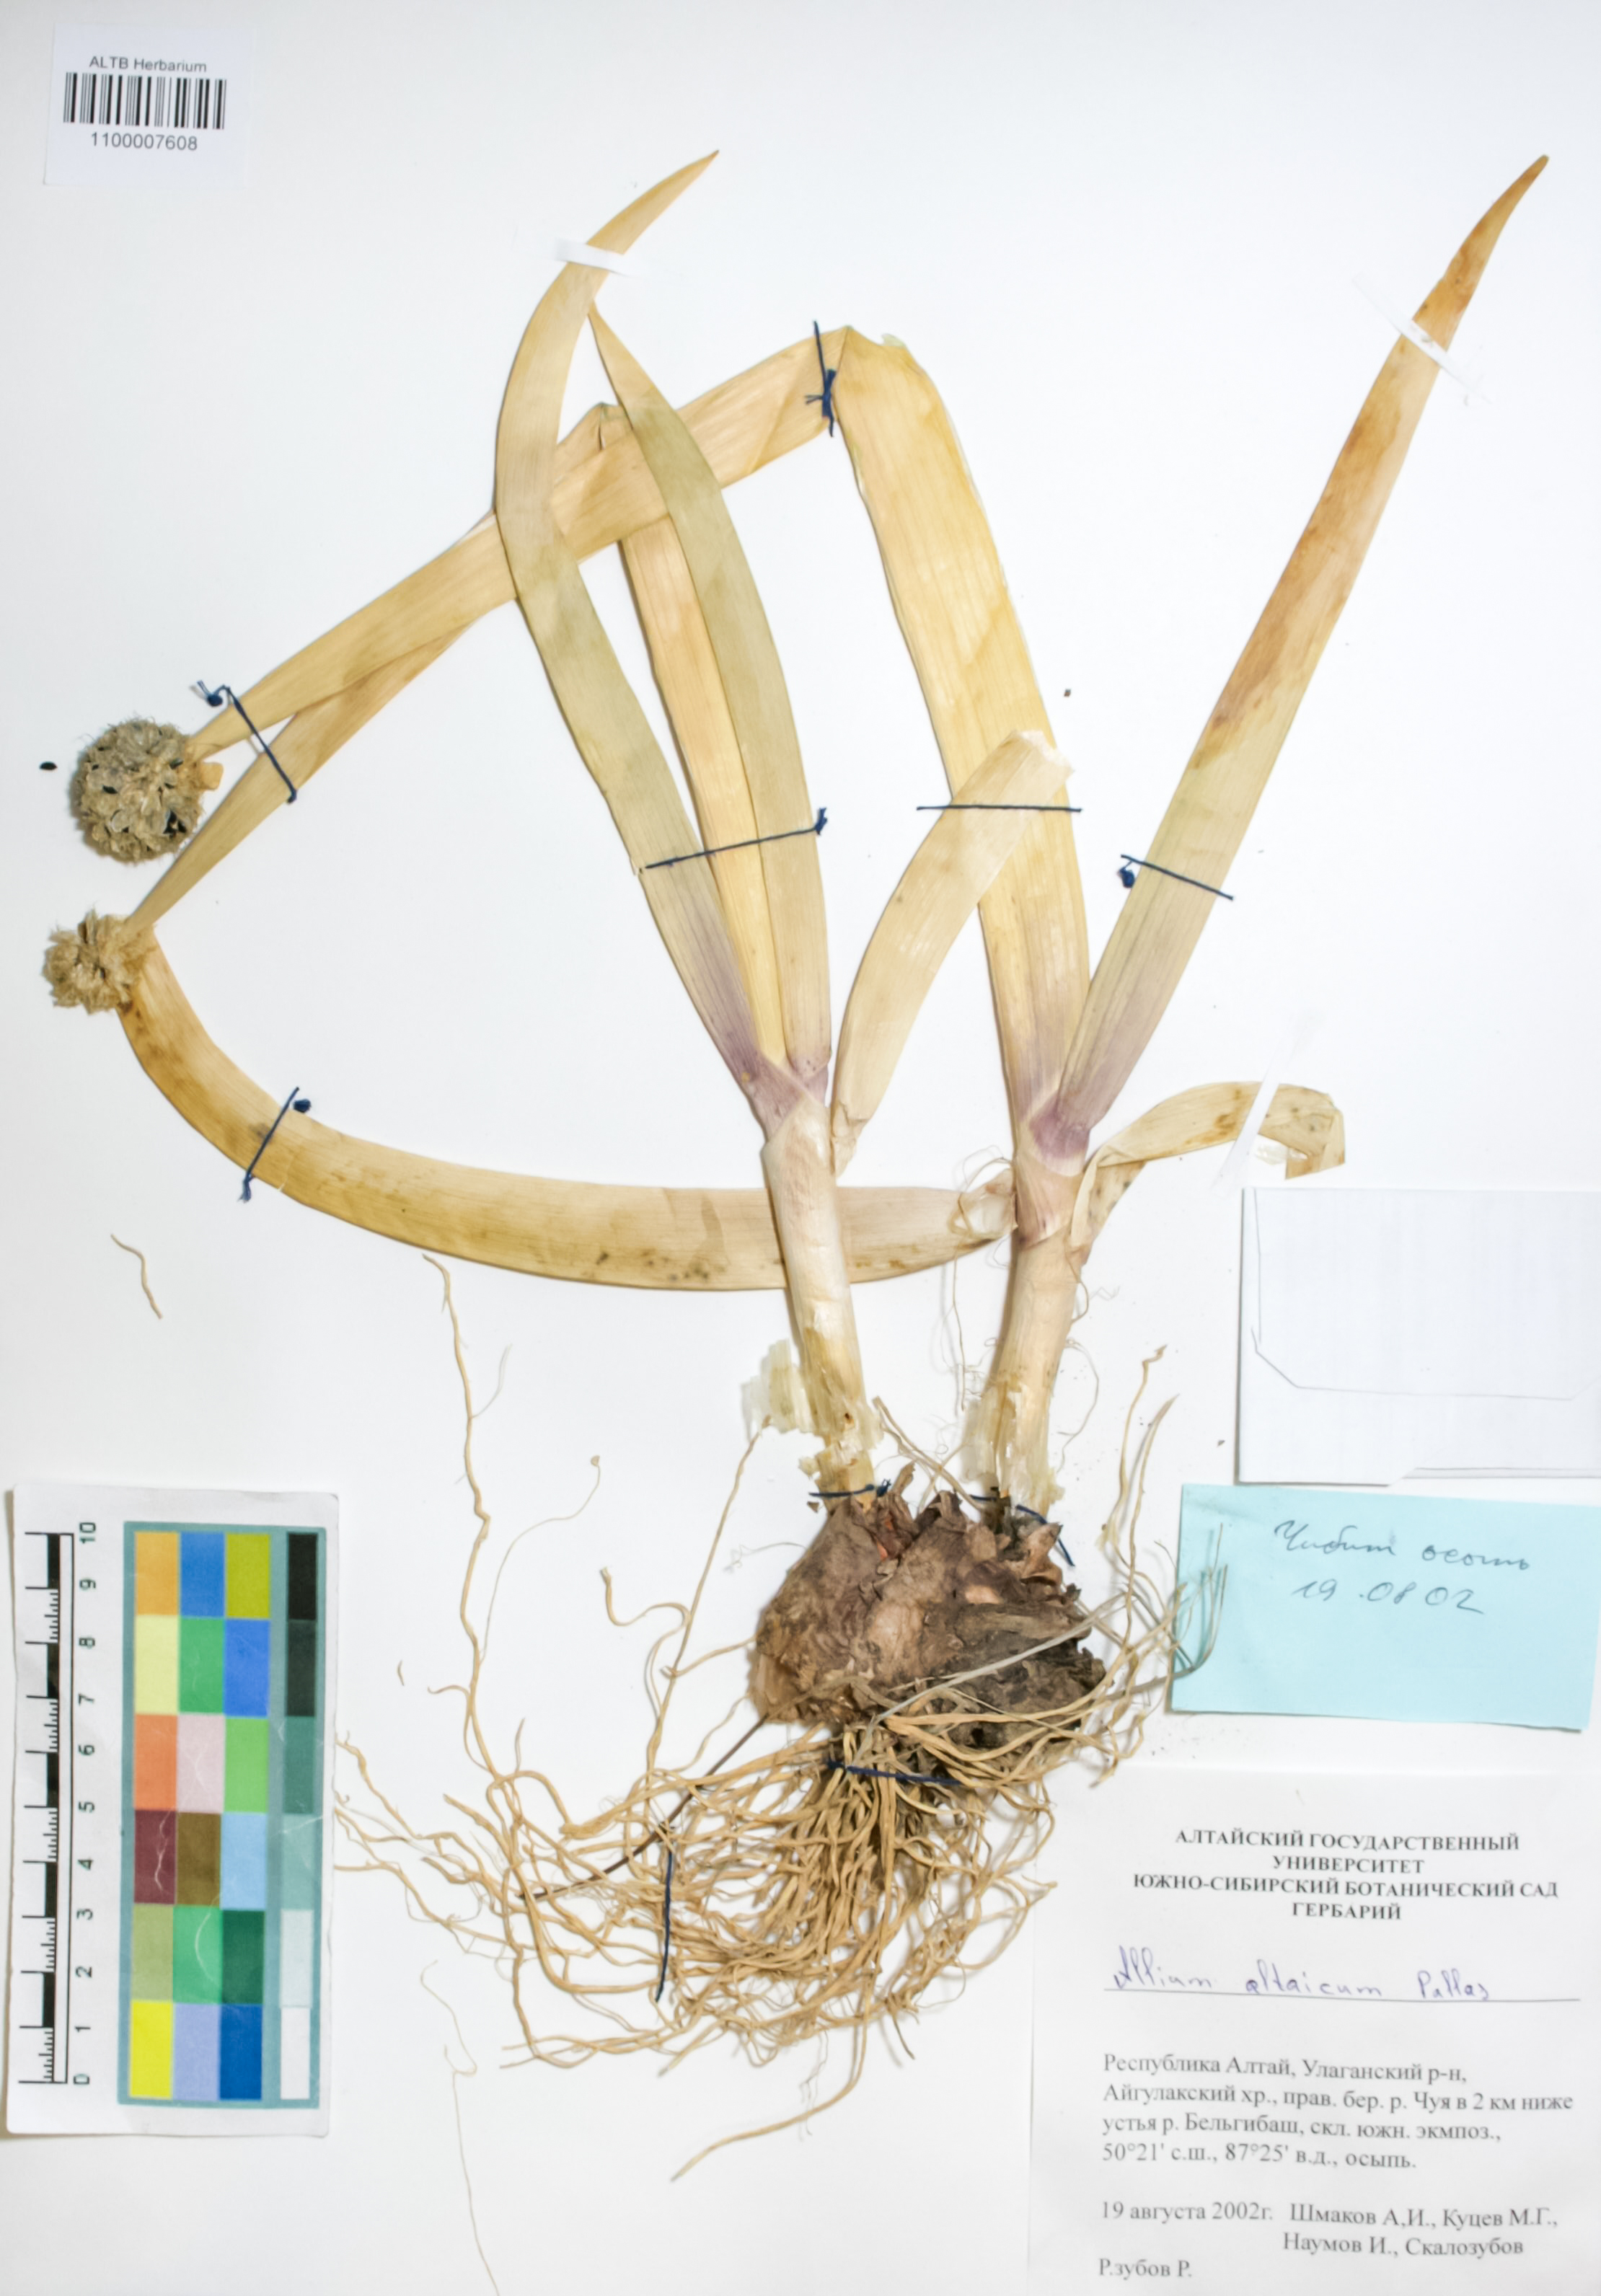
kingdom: Plantae
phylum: Tracheophyta
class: Liliopsida
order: Asparagales
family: Amaryllidaceae
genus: Allium
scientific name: Allium altaicum
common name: Altai onion
